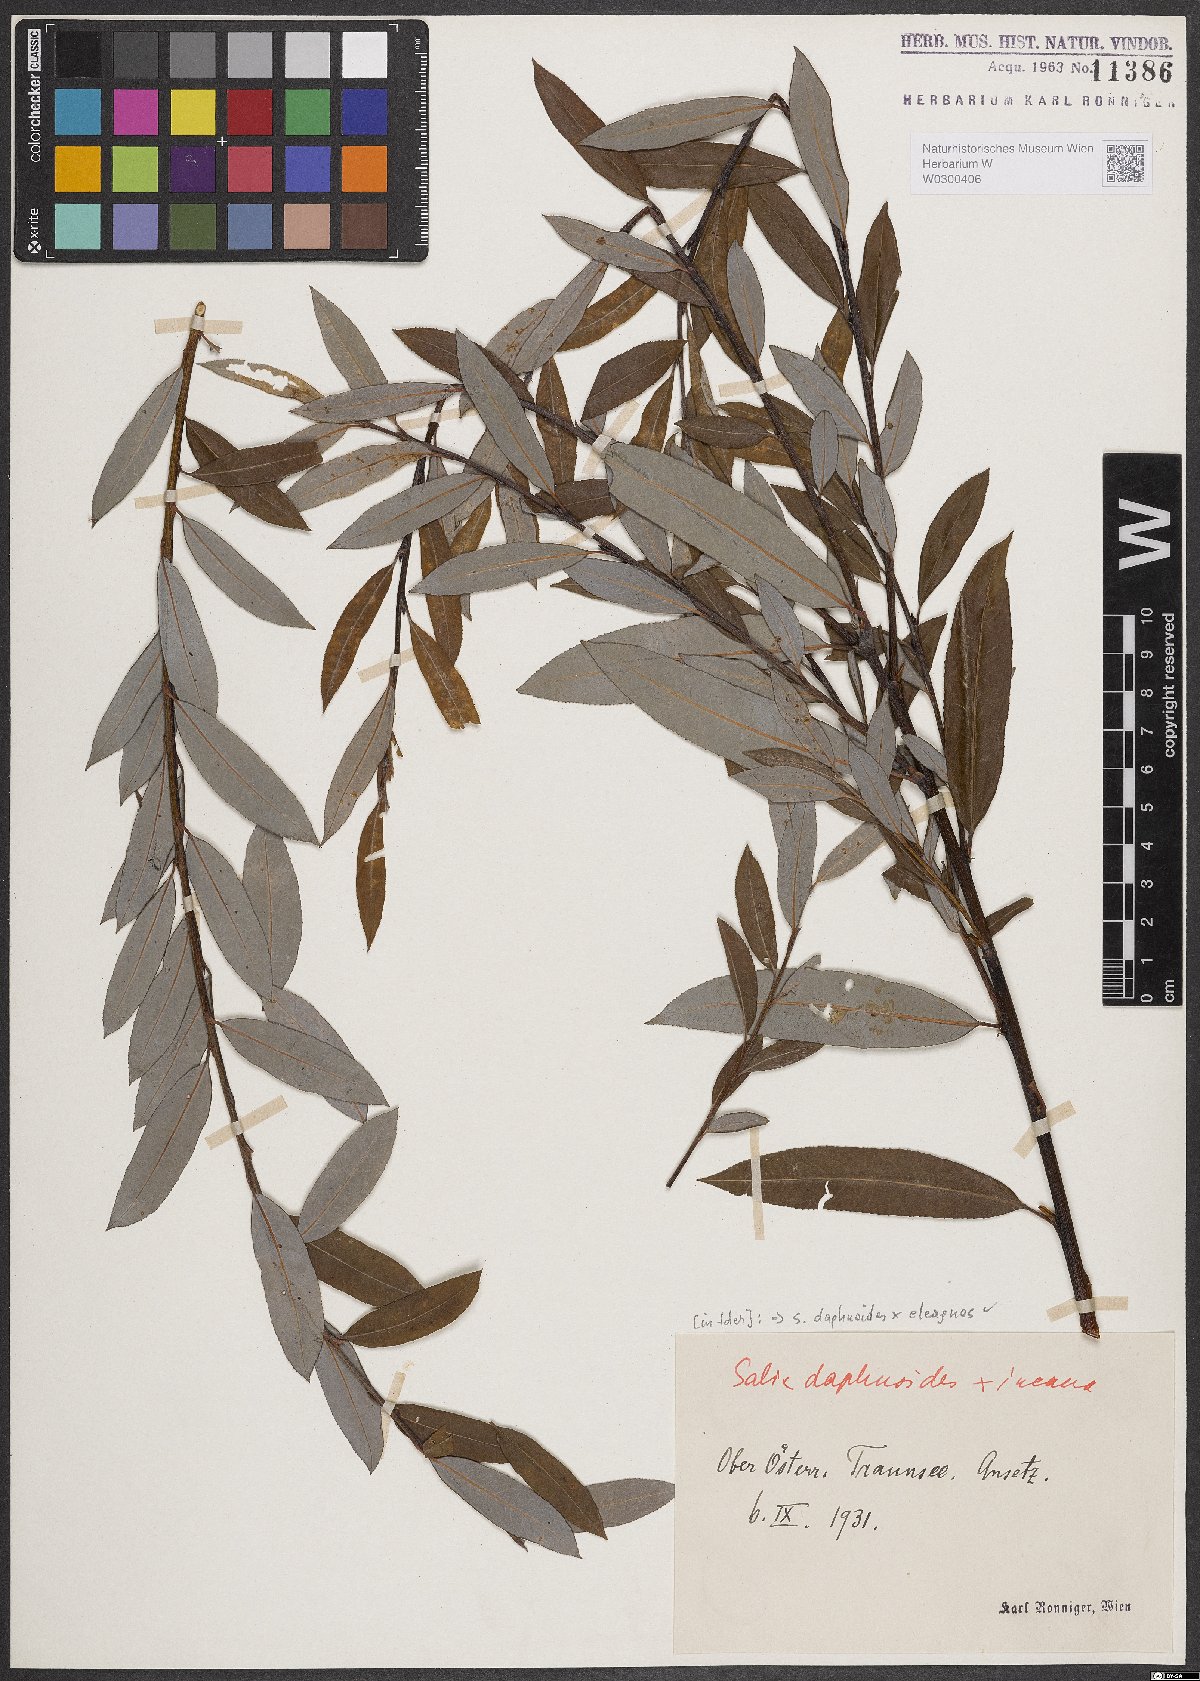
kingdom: Plantae
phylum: Tracheophyta
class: Magnoliopsida
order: Malpighiales
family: Salicaceae
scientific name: Salicaceae
